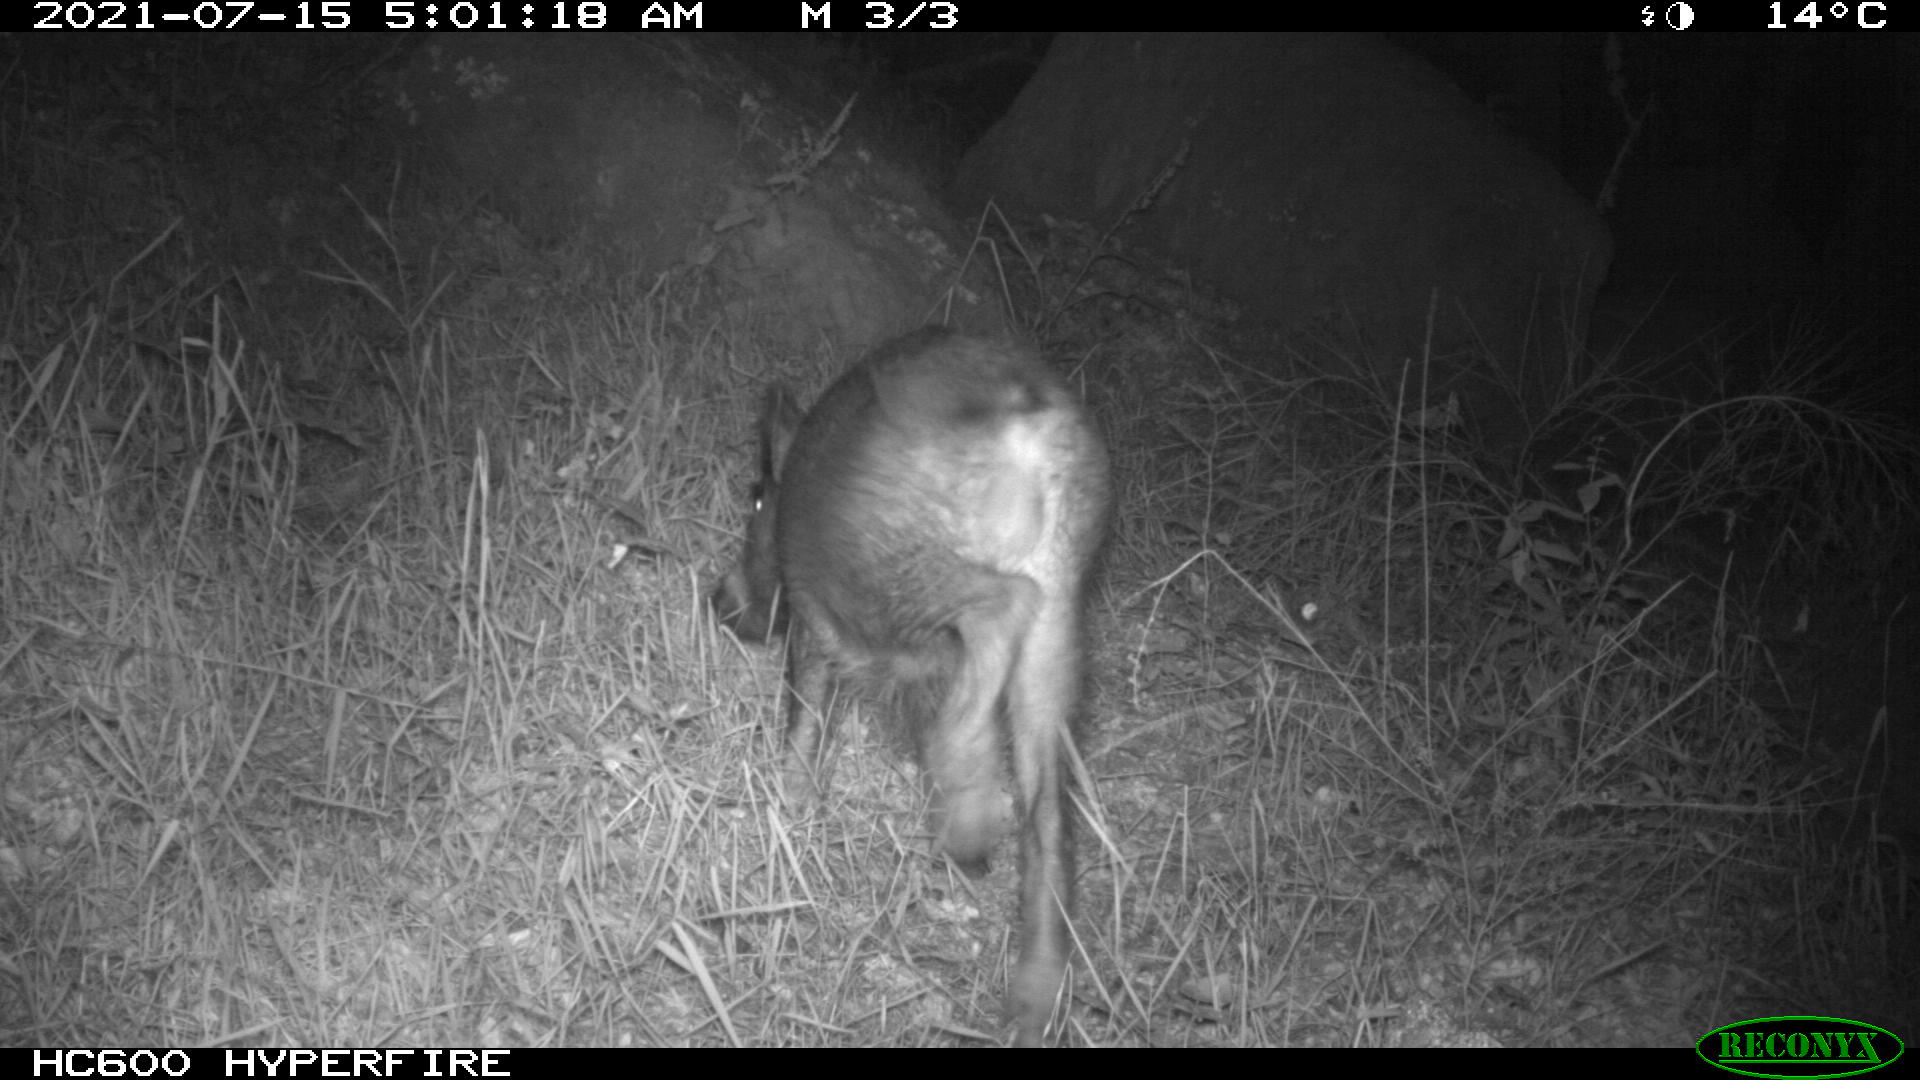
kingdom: Animalia
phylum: Chordata
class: Mammalia
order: Artiodactyla
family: Suidae
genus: Sus
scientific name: Sus scrofa
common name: Wild boar
